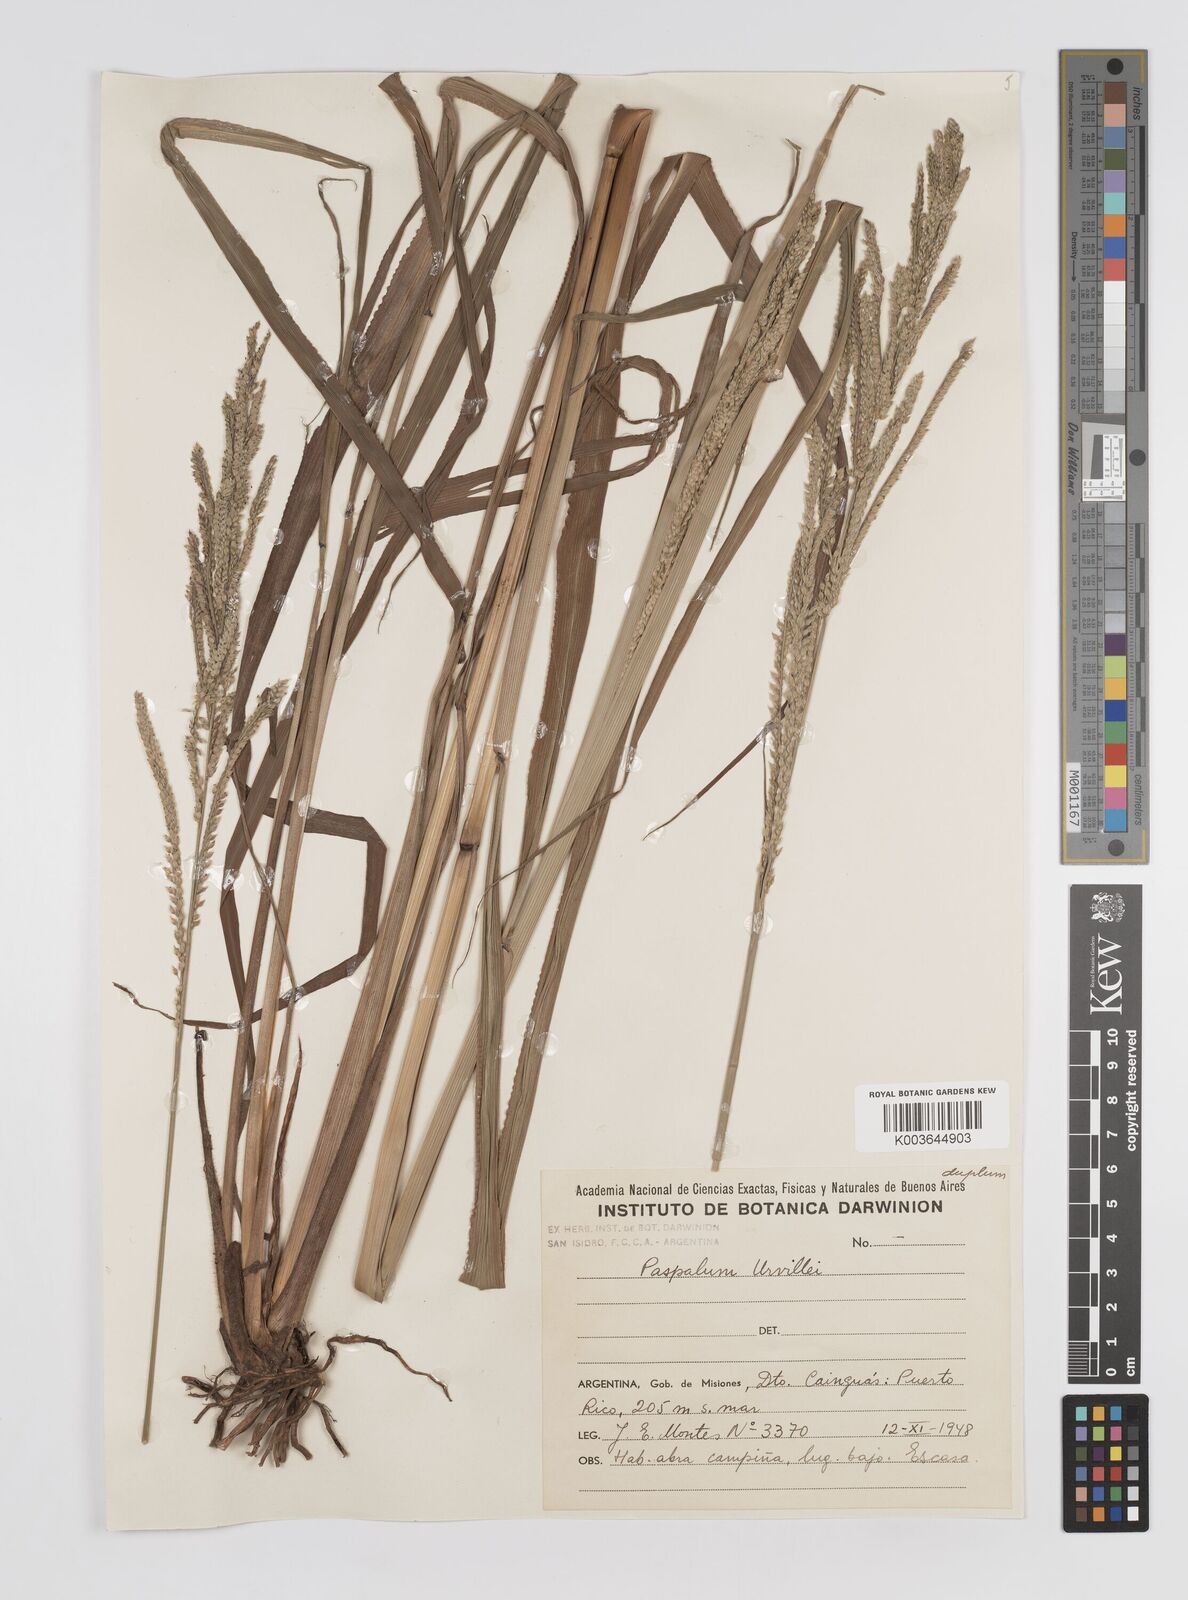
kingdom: Plantae
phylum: Tracheophyta
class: Liliopsida
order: Poales
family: Poaceae
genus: Paspalum
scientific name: Paspalum urvillei
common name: Vasey's grass
